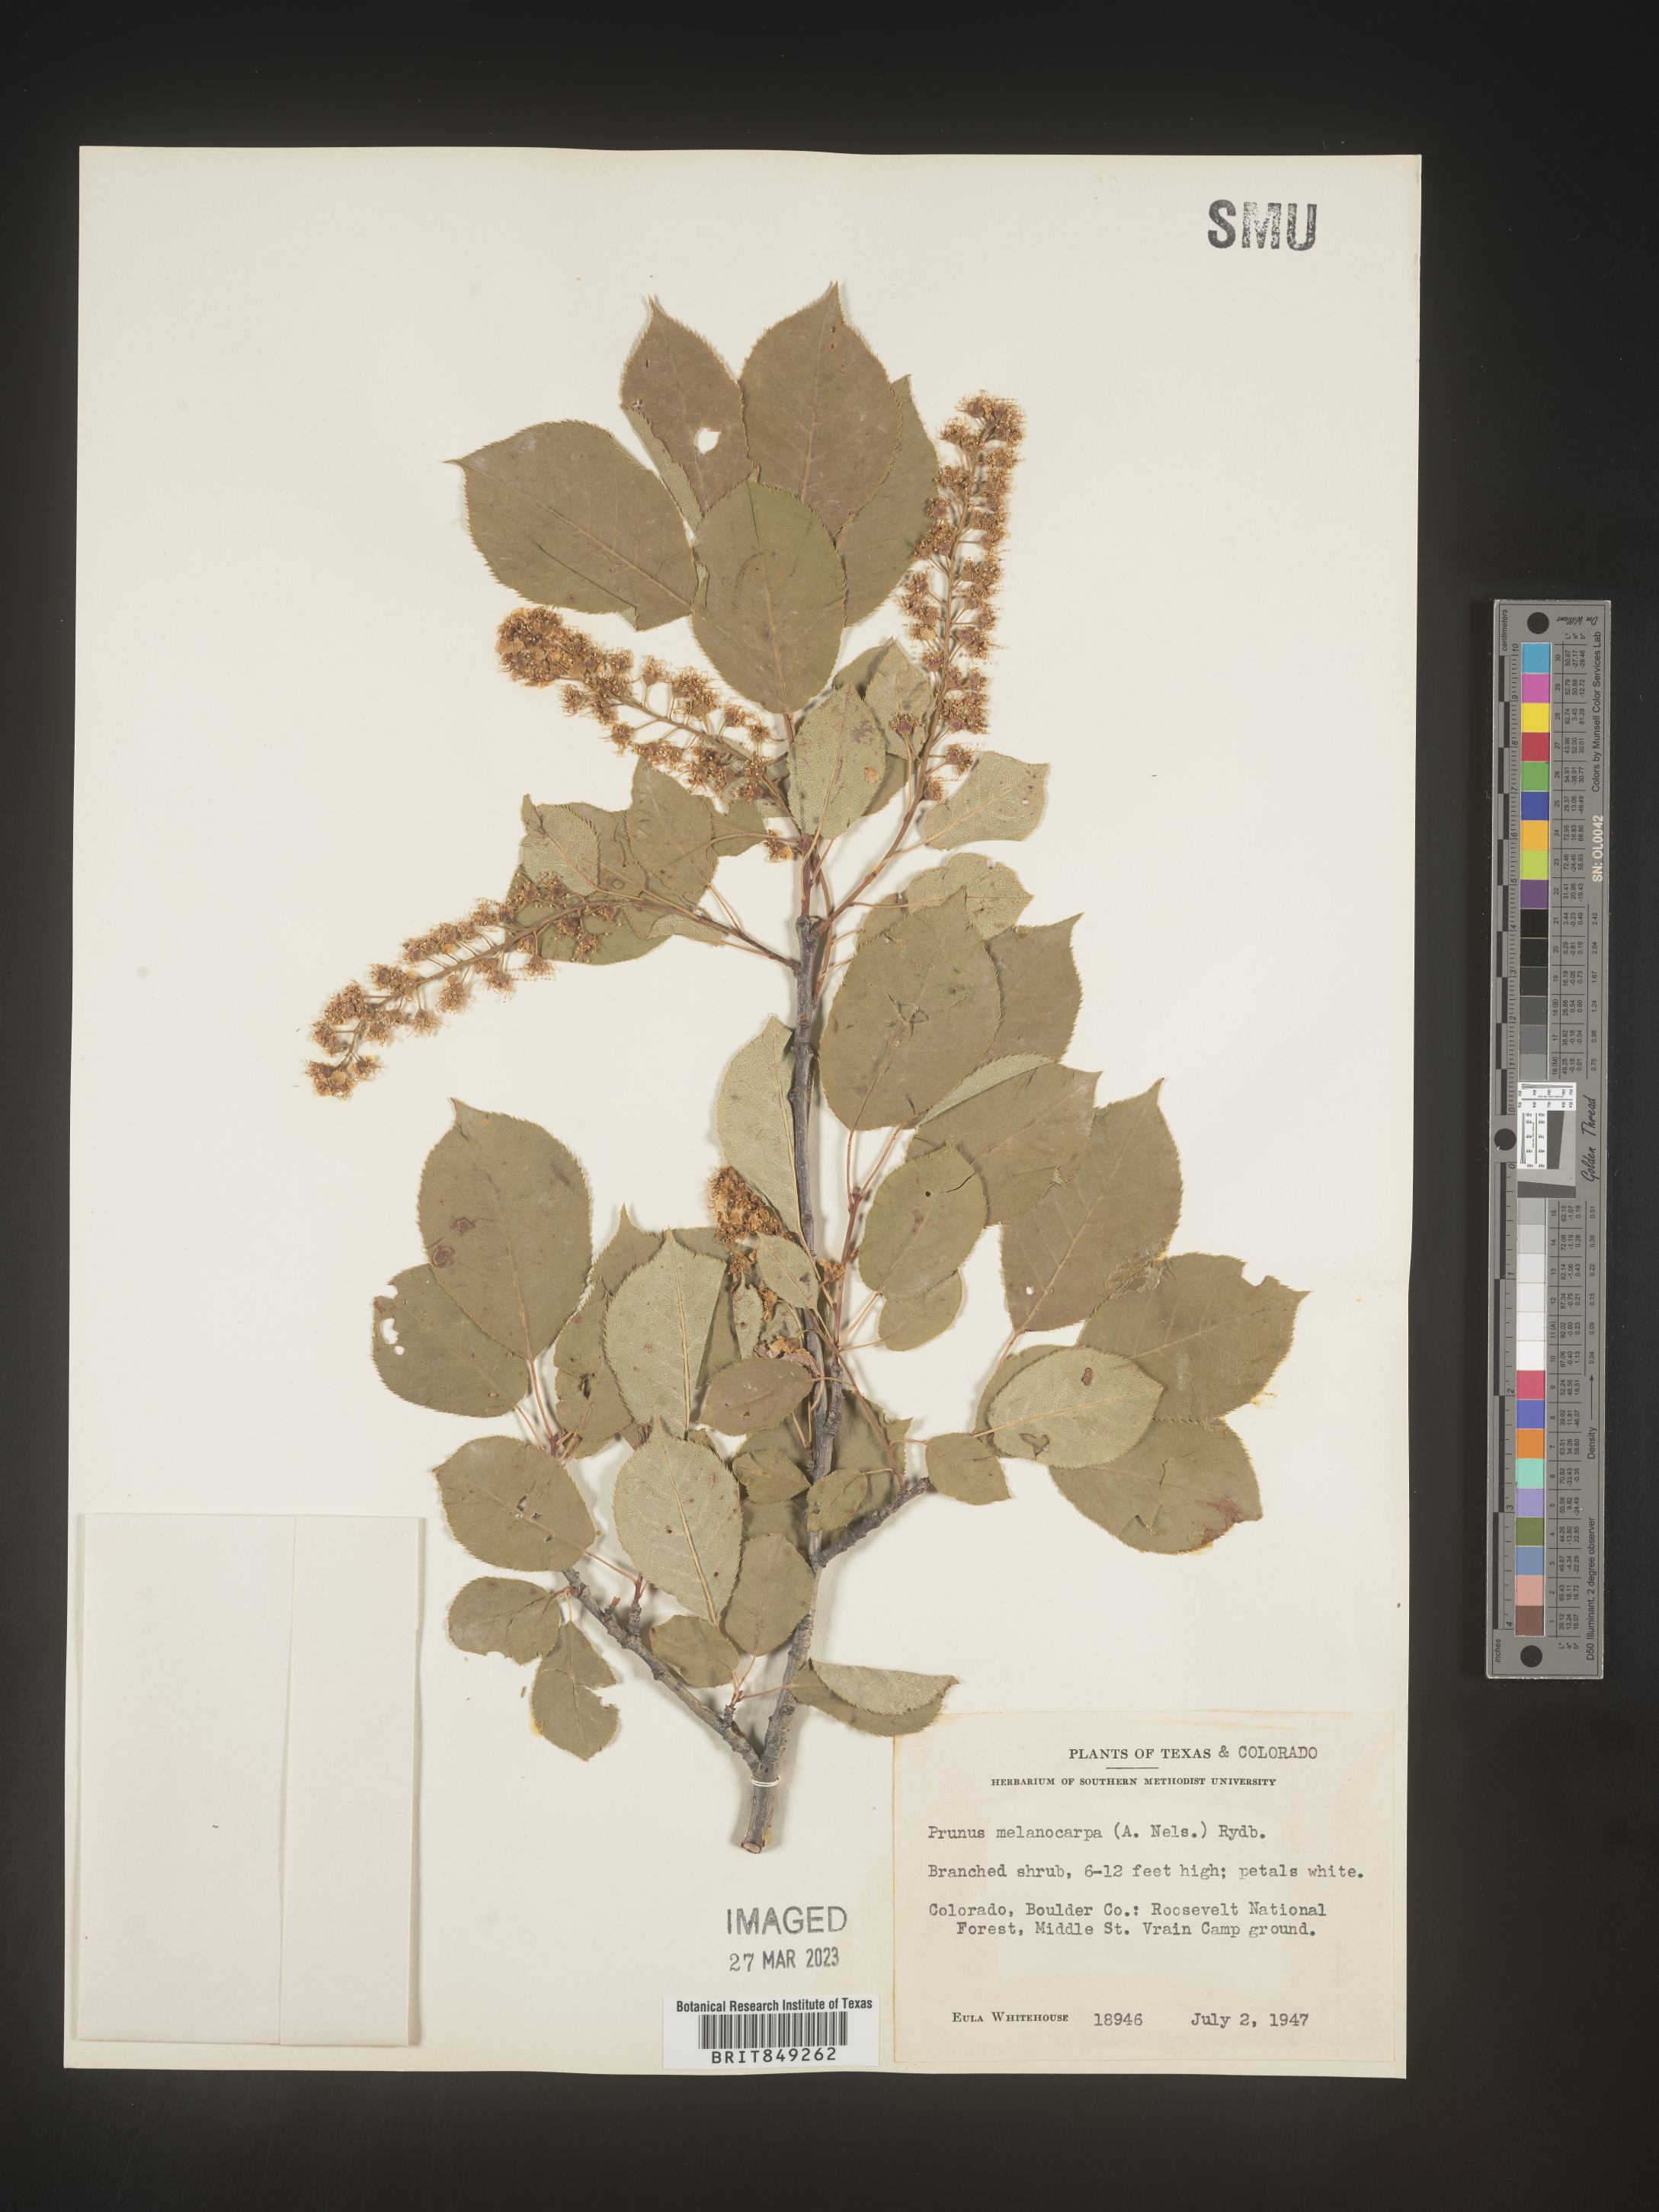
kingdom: Plantae
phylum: Tracheophyta
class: Magnoliopsida
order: Rosales
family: Rosaceae
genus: Prunus
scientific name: Prunus
